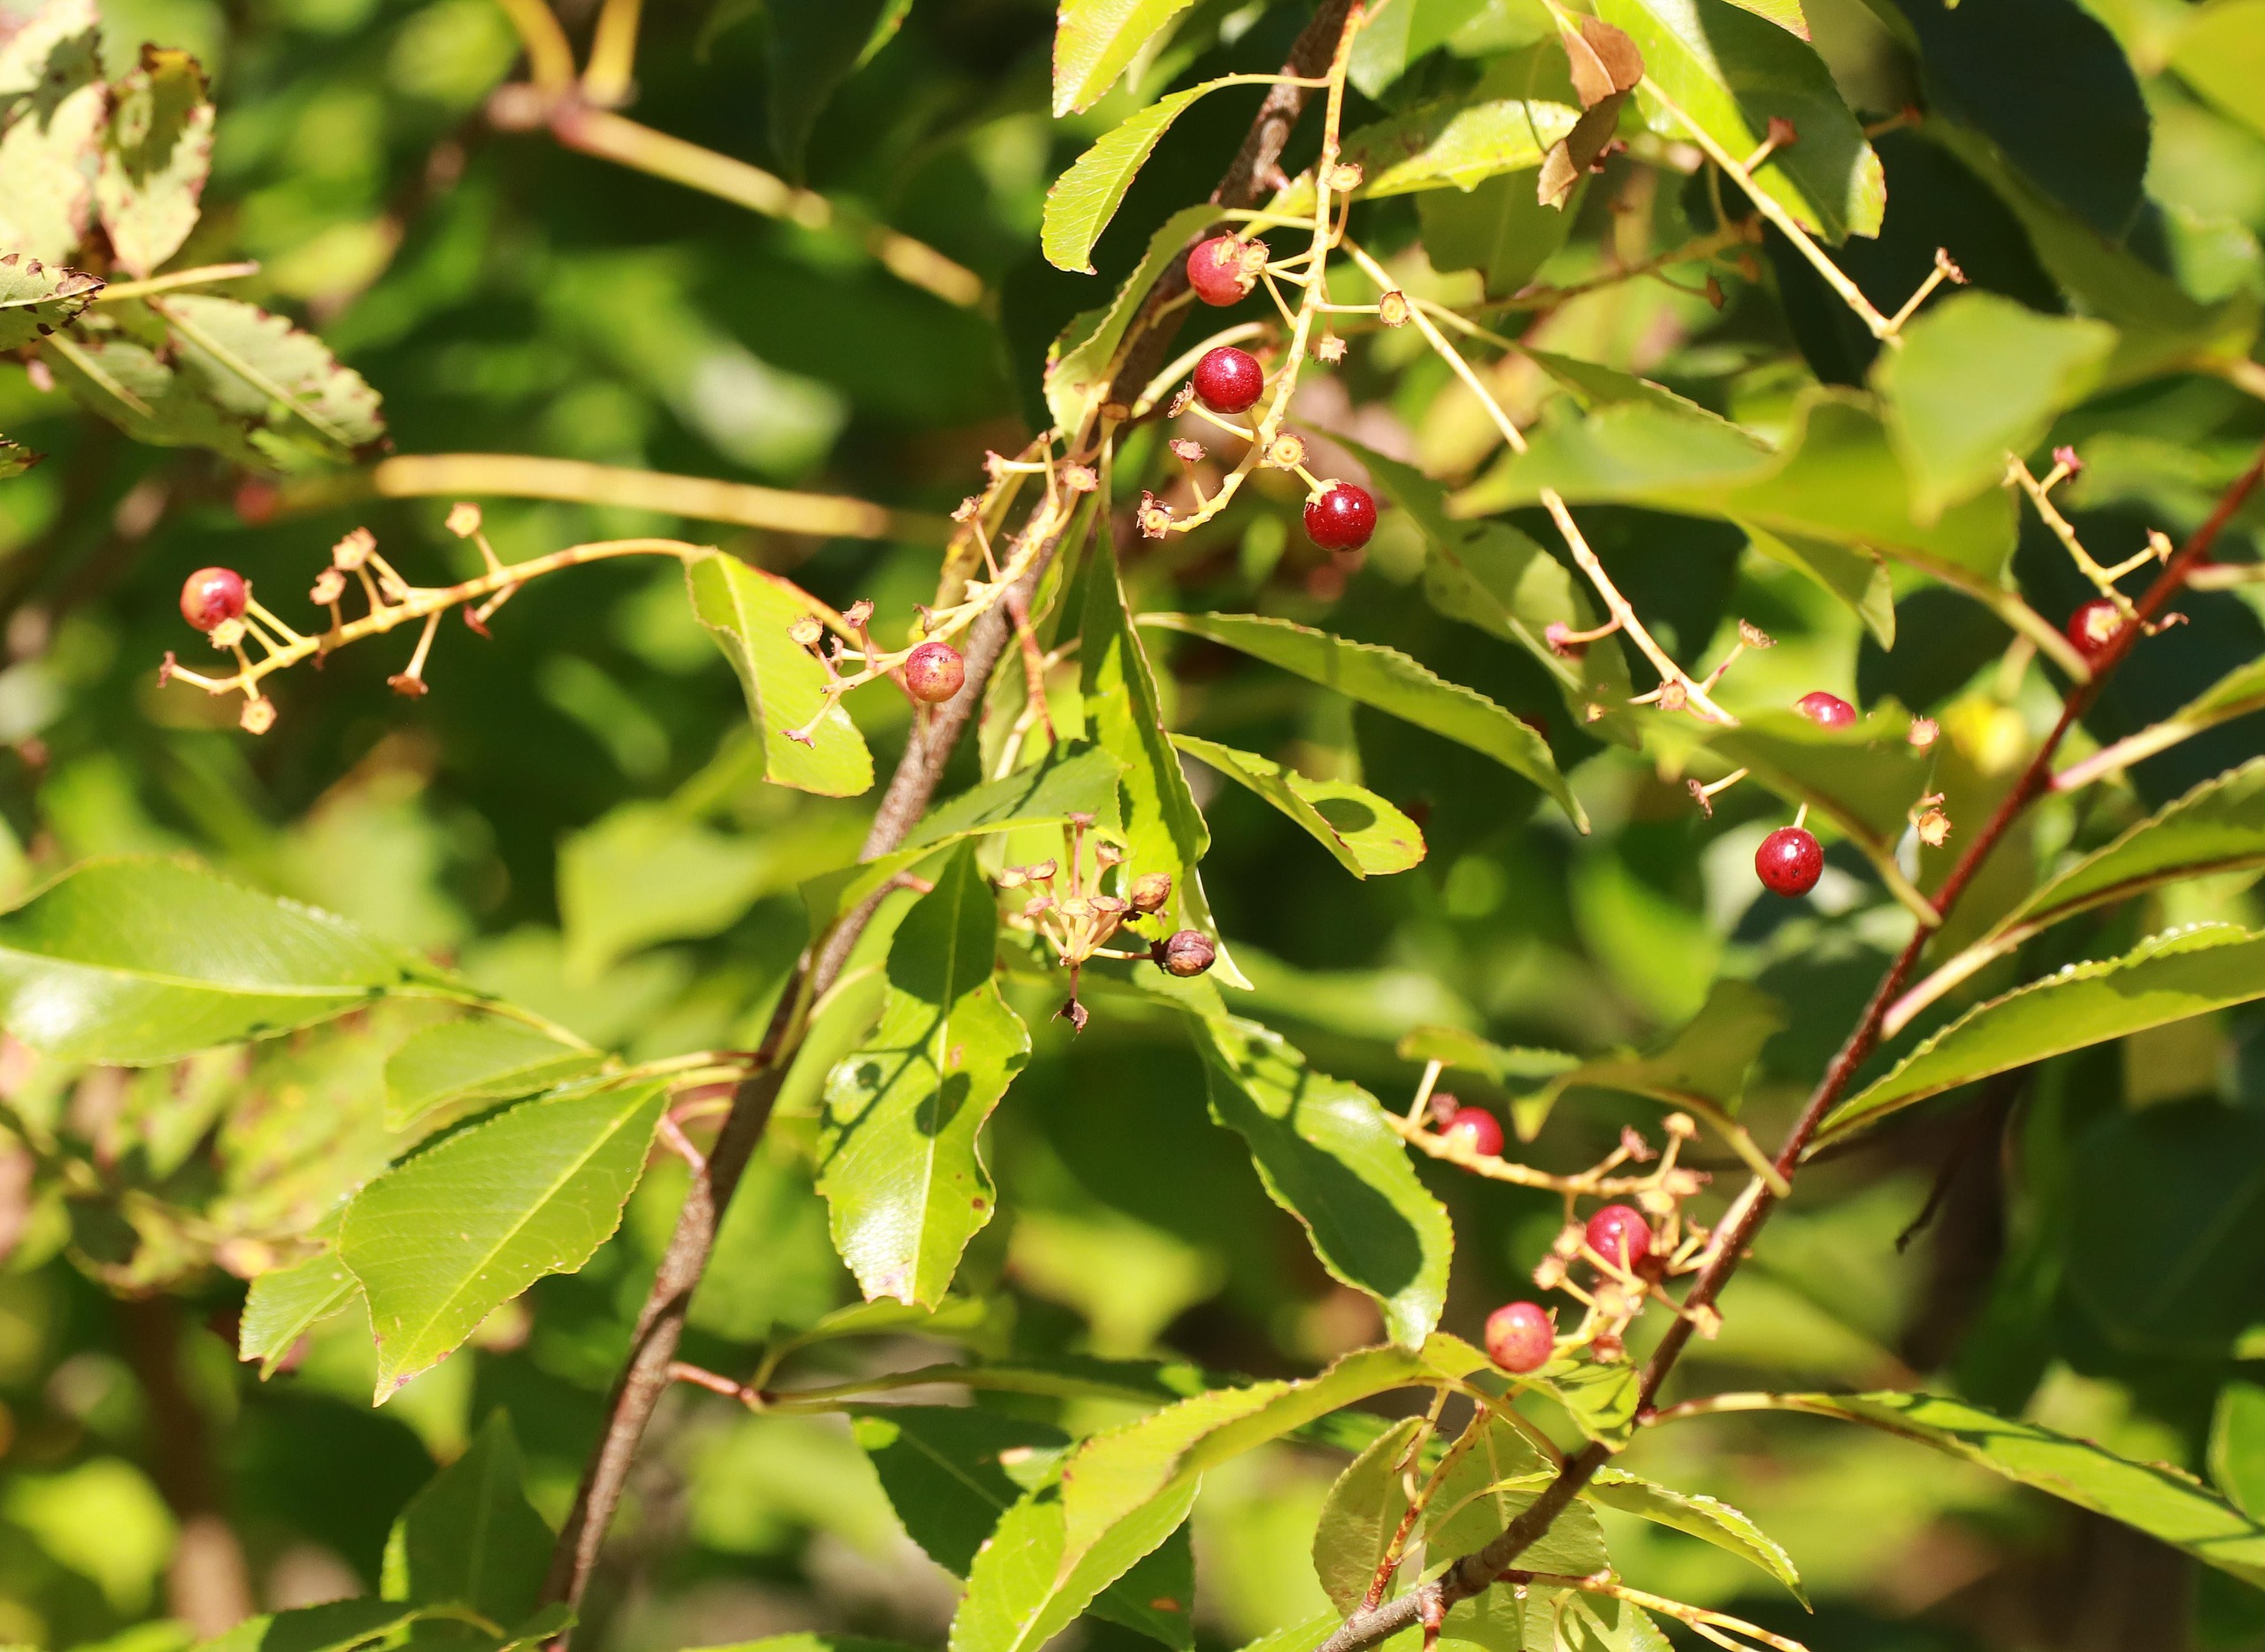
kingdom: Plantae
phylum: Tracheophyta
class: Magnoliopsida
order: Rosales
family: Rosaceae
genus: Prunus
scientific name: Prunus serotina
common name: Glansbladet hæg
